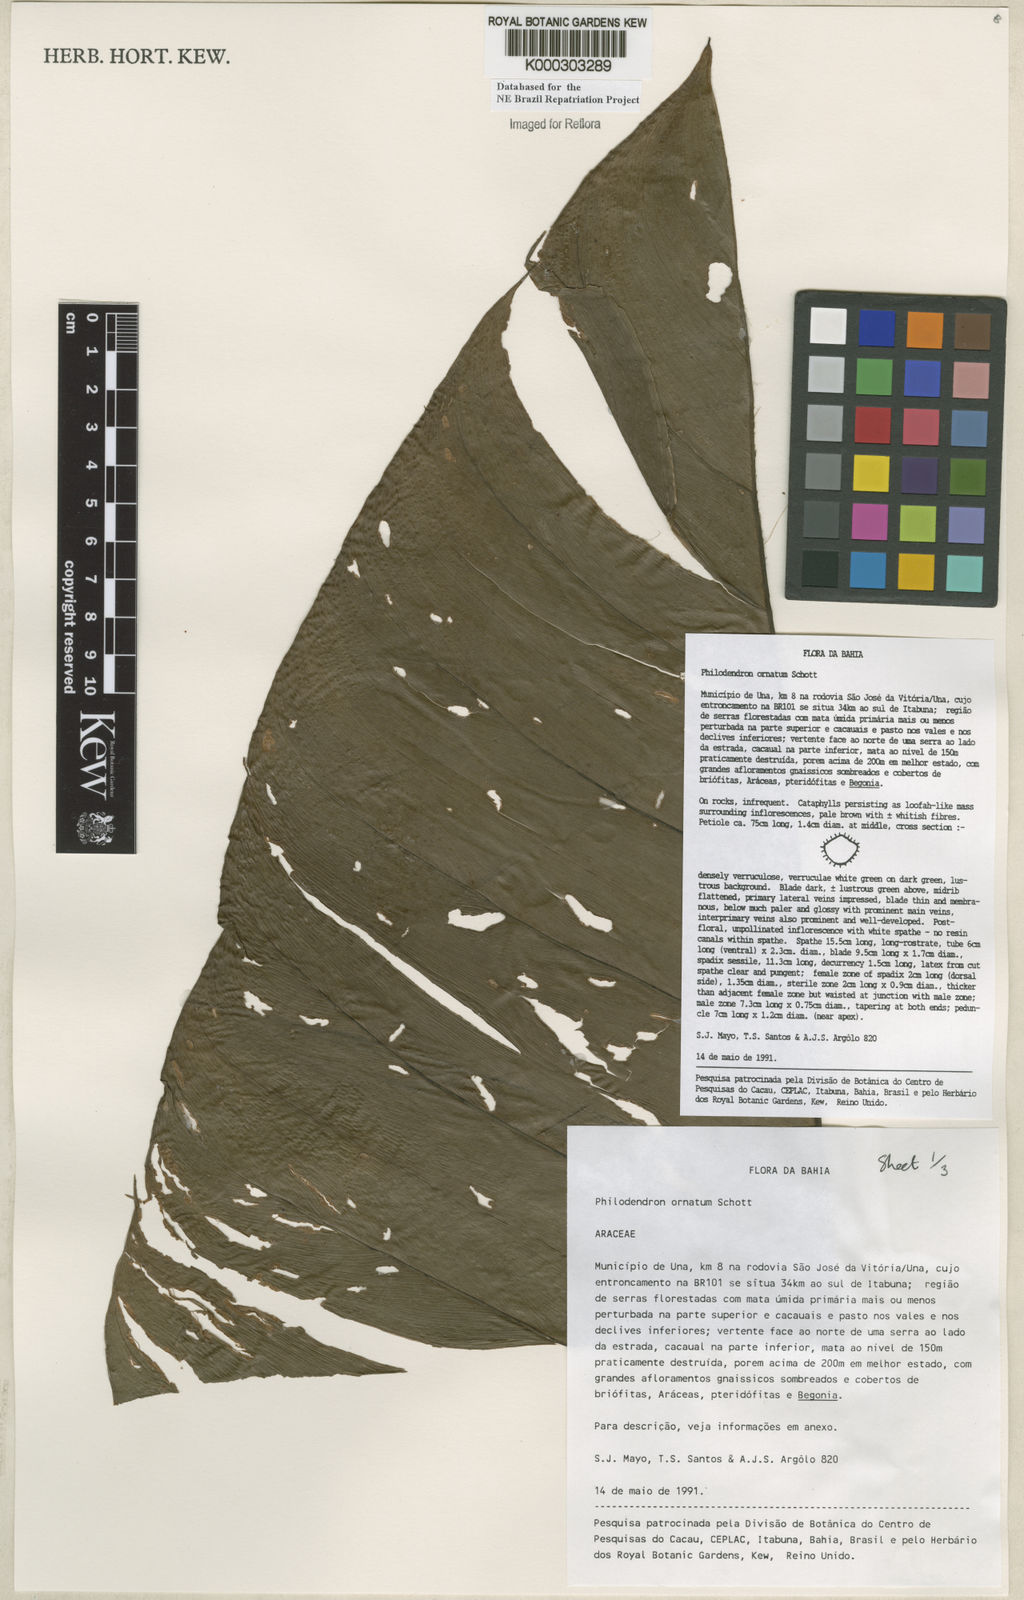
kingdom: Plantae
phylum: Tracheophyta
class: Liliopsida
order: Alismatales
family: Araceae
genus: Philodendron
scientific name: Philodendron ornatum
